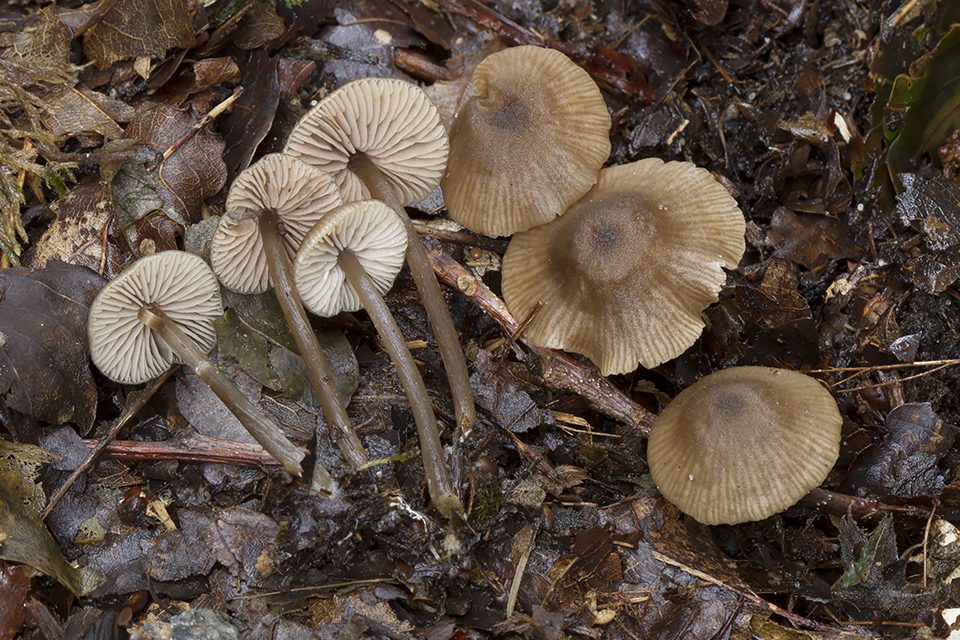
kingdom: Fungi
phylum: Basidiomycota
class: Agaricomycetes
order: Agaricales
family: Entolomataceae
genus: Entoloma
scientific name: Entoloma
